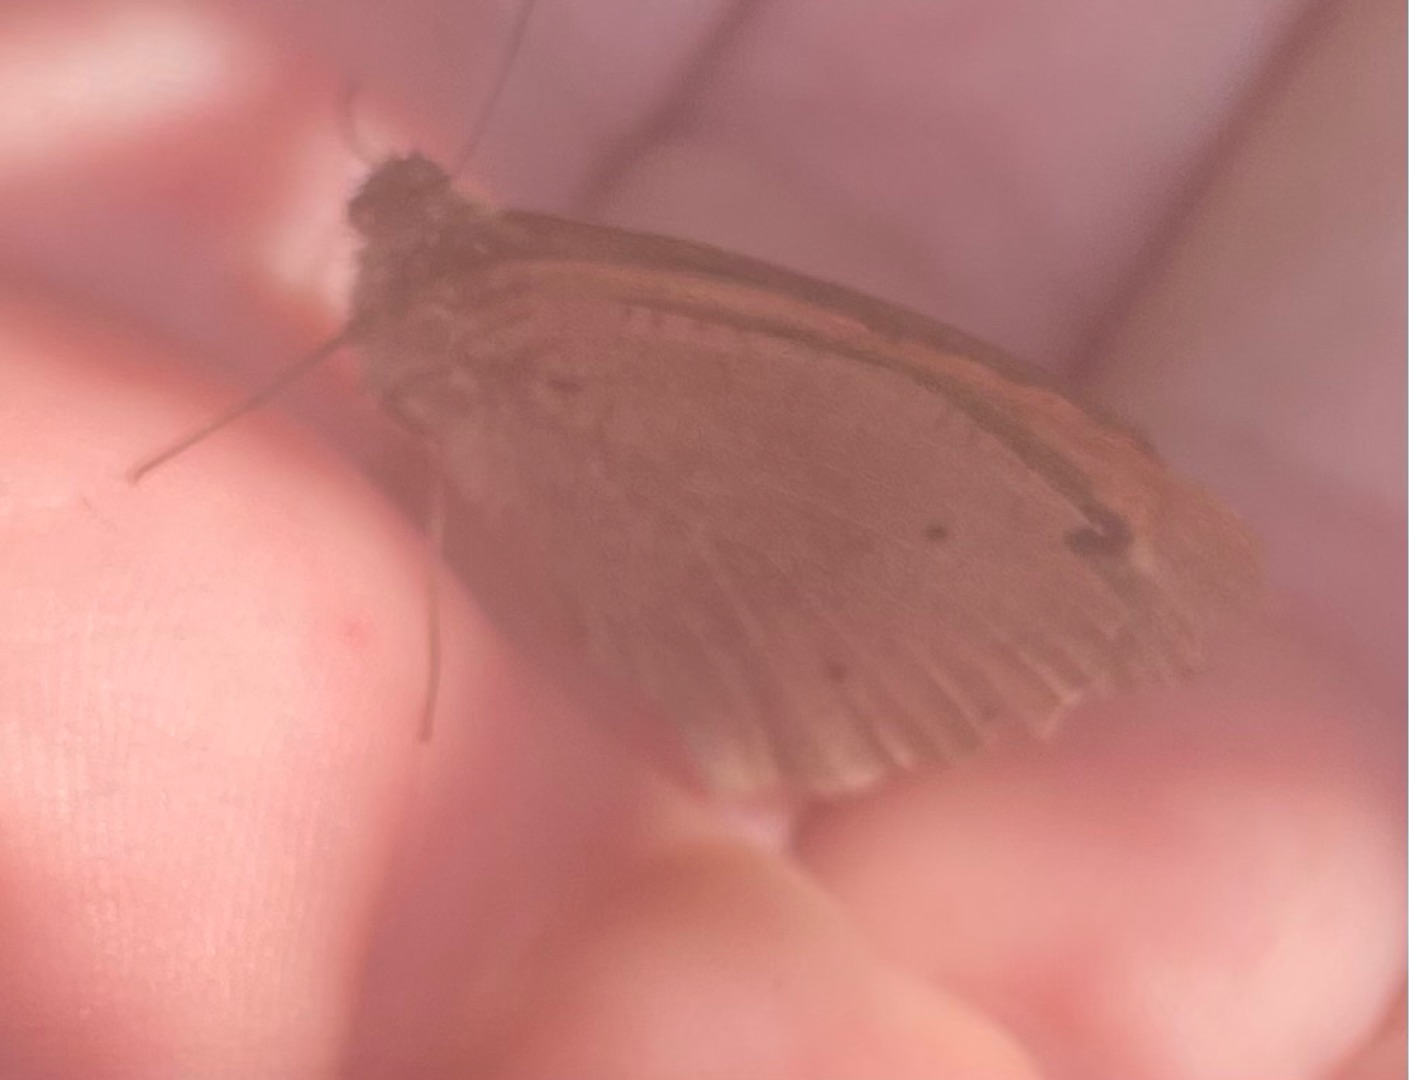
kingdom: Animalia
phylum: Arthropoda
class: Insecta
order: Lepidoptera
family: Nymphalidae
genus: Maniola
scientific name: Maniola jurtina
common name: Græsrandøje
